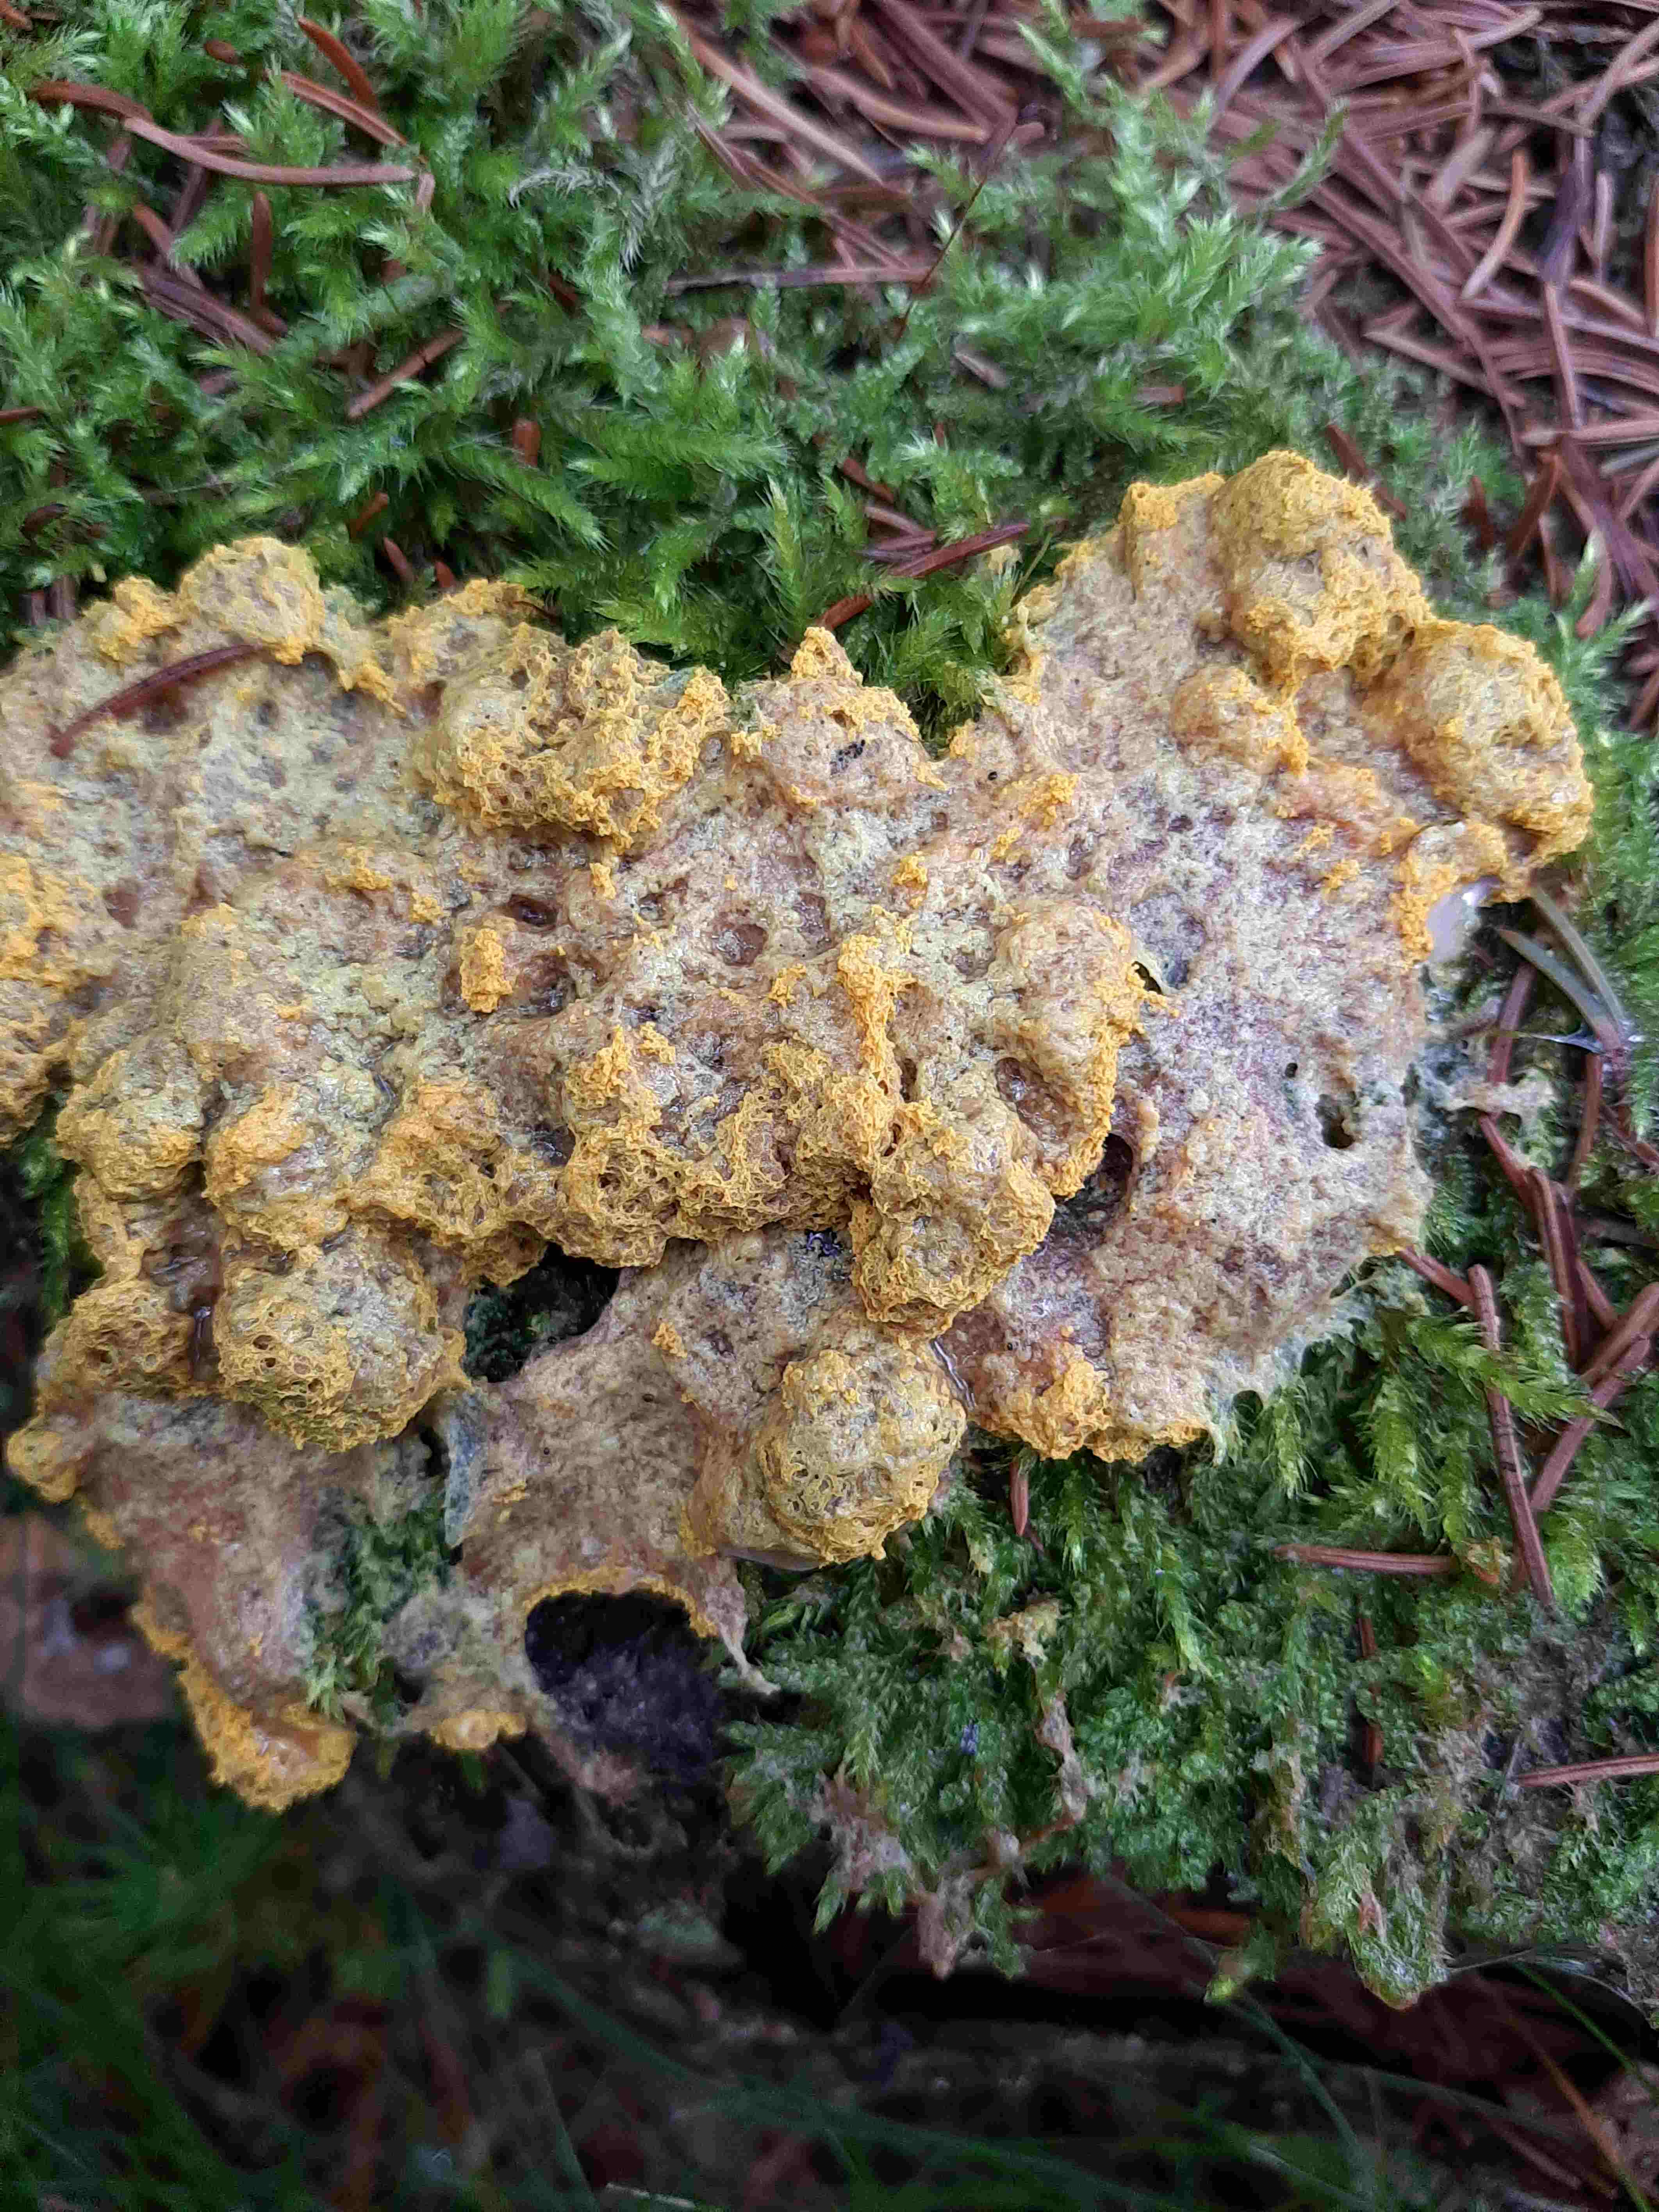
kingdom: Protozoa
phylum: Mycetozoa
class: Myxomycetes
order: Physarales
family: Physaraceae
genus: Fuligo
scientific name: Fuligo septica
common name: gul troldsmør
